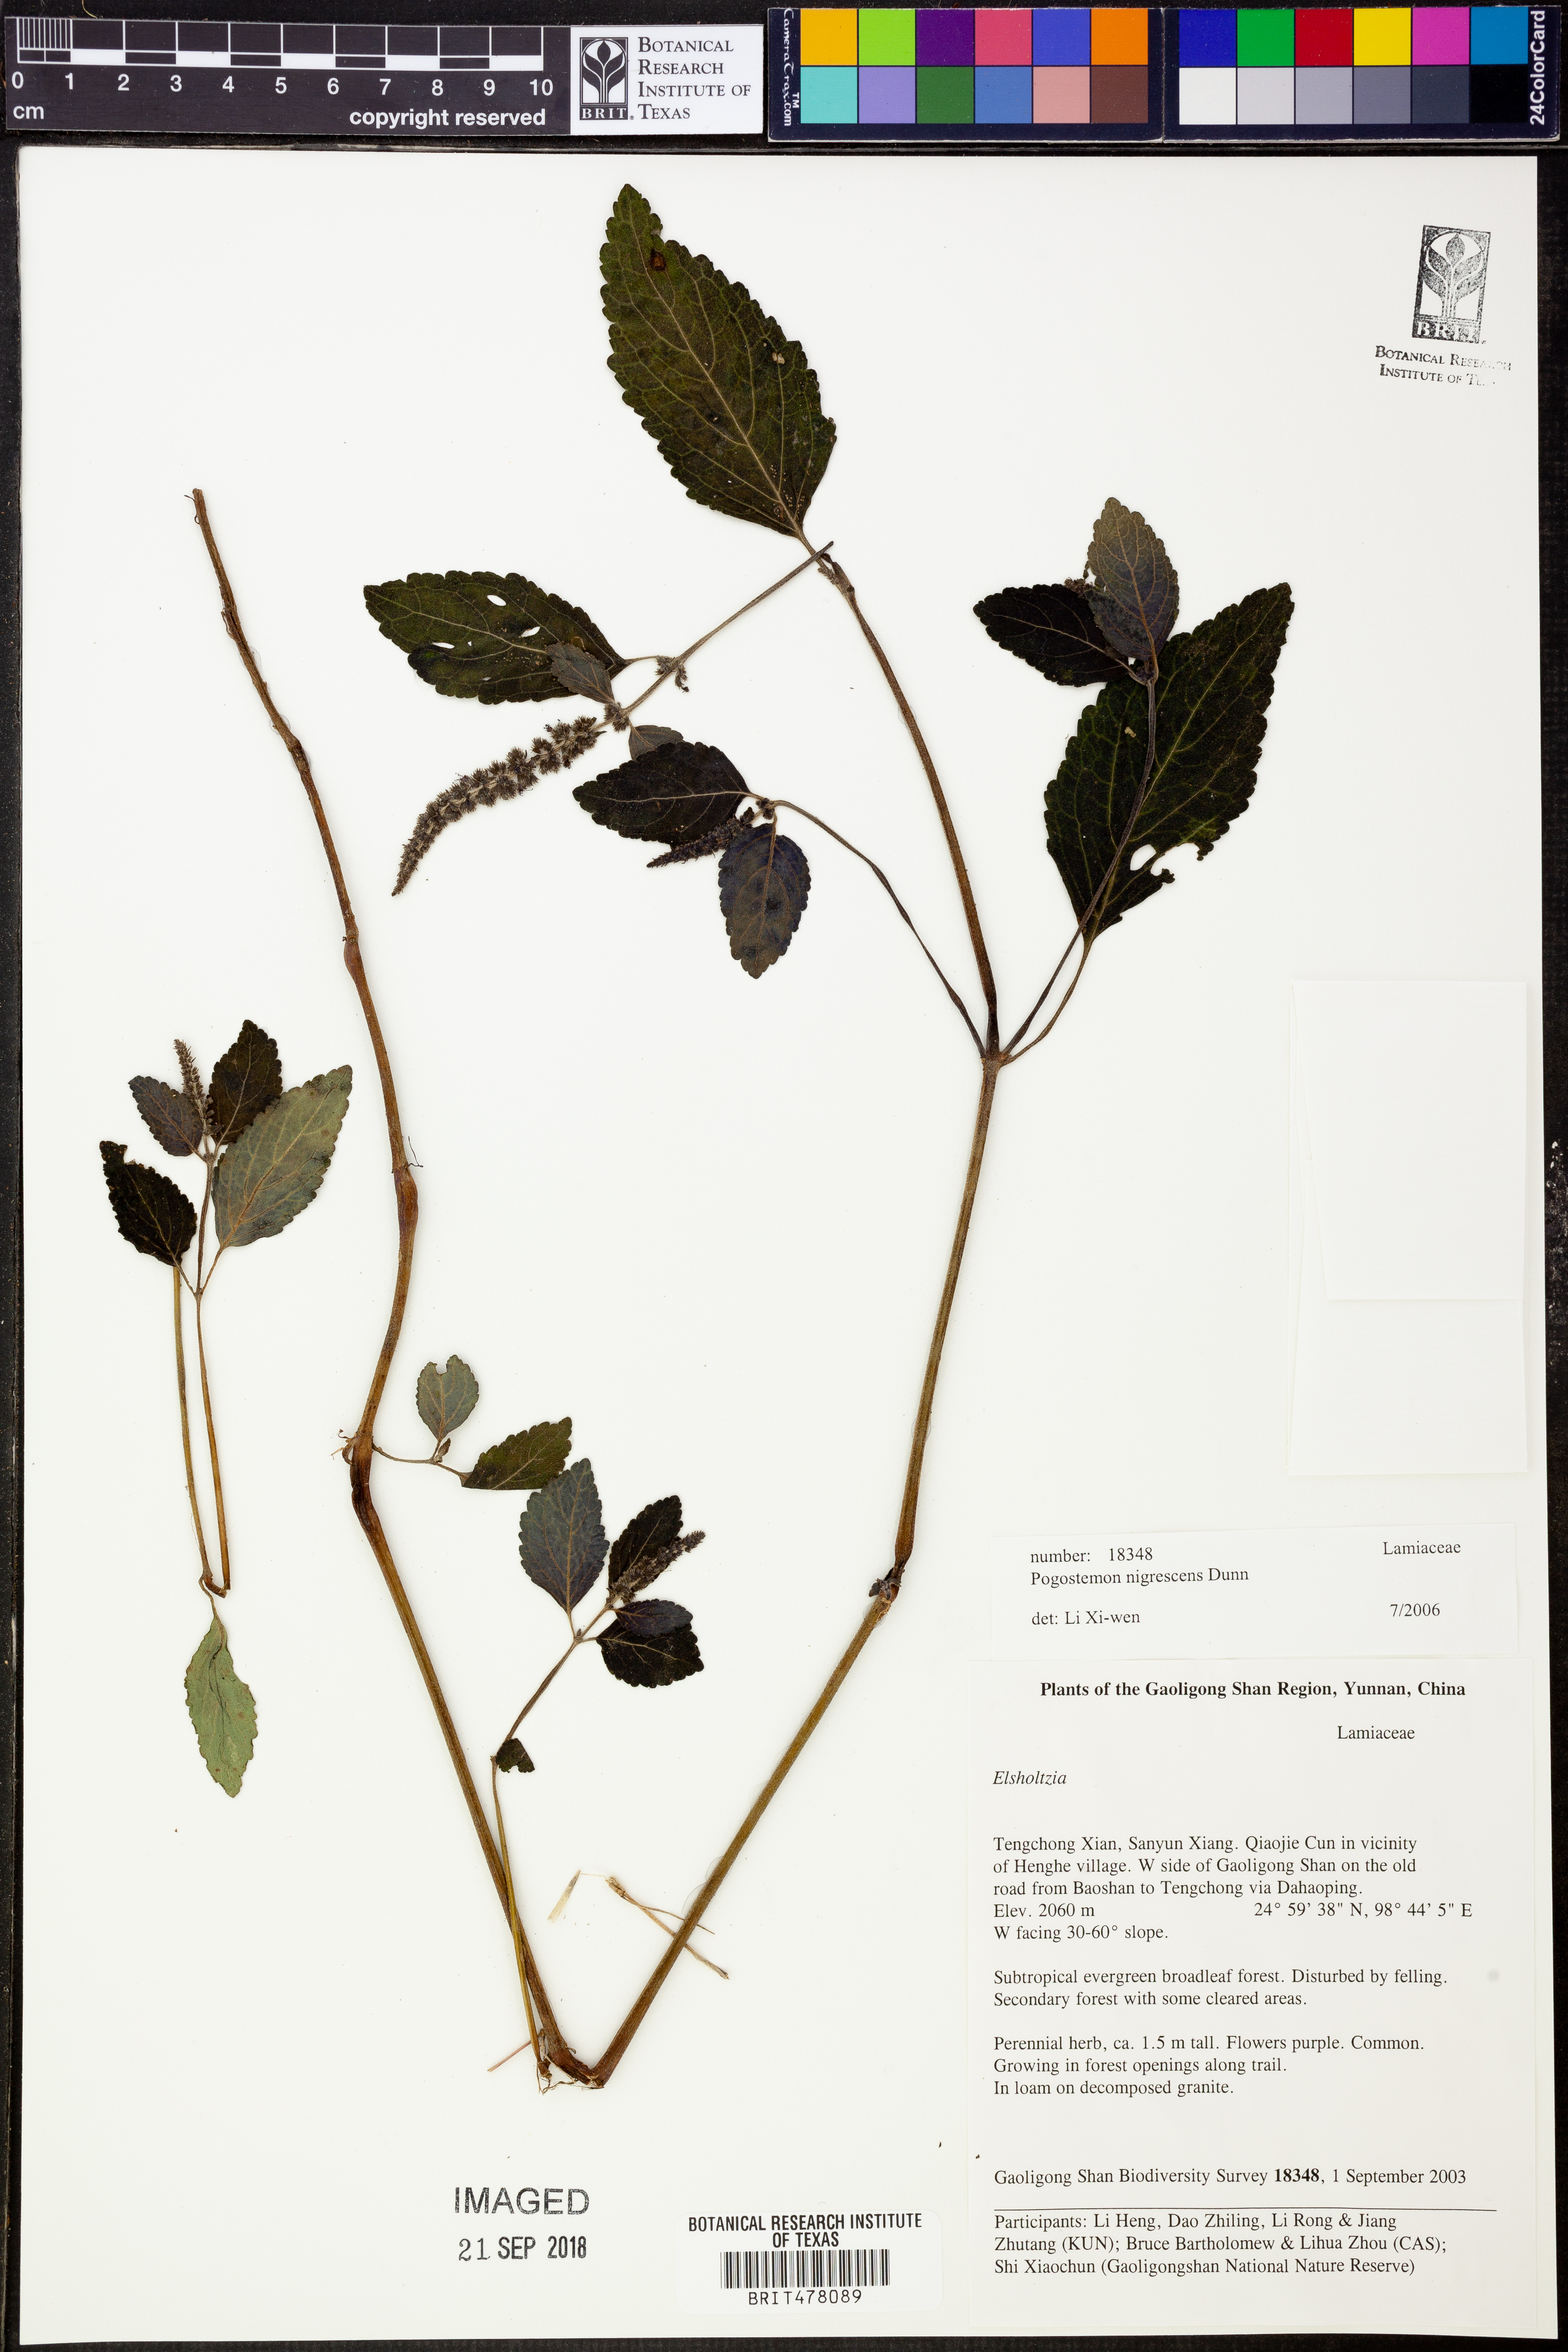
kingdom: Plantae
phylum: Tracheophyta
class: Magnoliopsida
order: Lamiales
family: Lamiaceae
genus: Pogostemon
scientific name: Pogostemon brachystachyus
